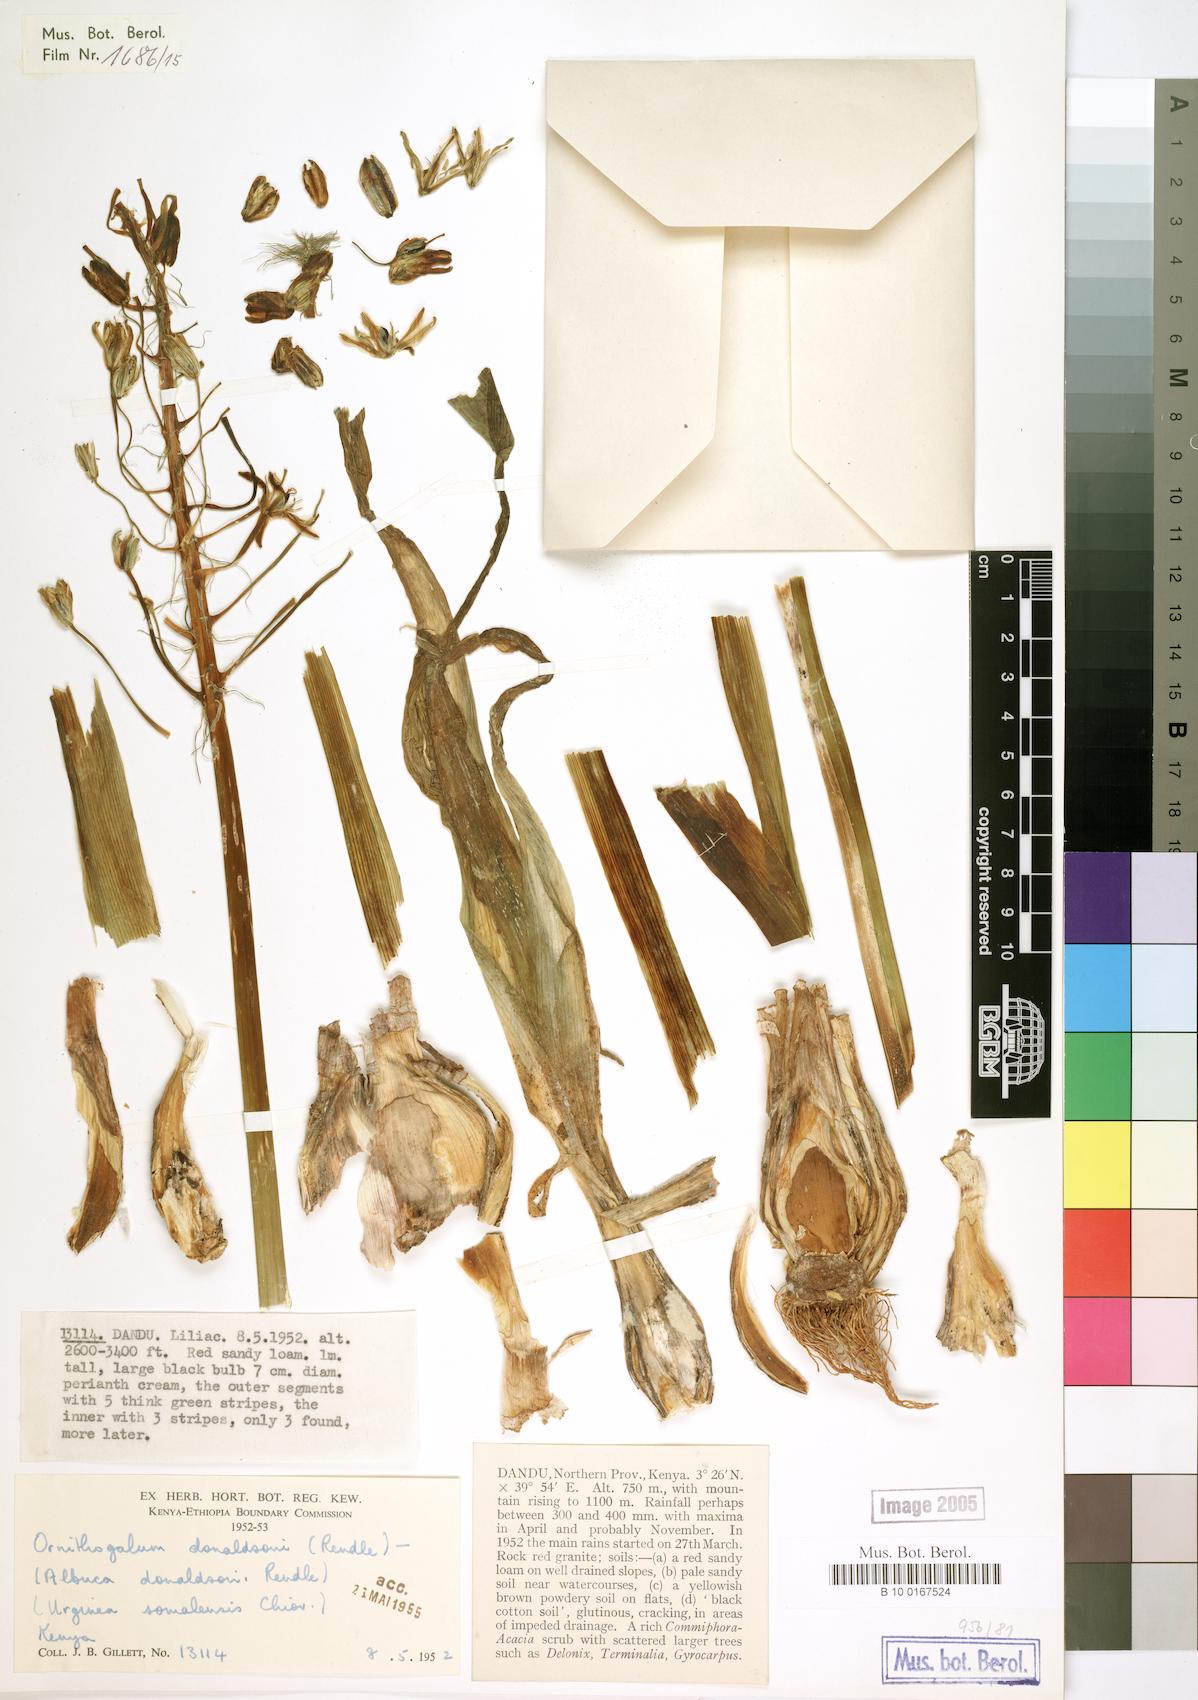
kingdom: Plantae
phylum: Tracheophyta
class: Liliopsida
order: Liliales
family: Liliaceae
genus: Ornithogalum
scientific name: Ornithogalum
